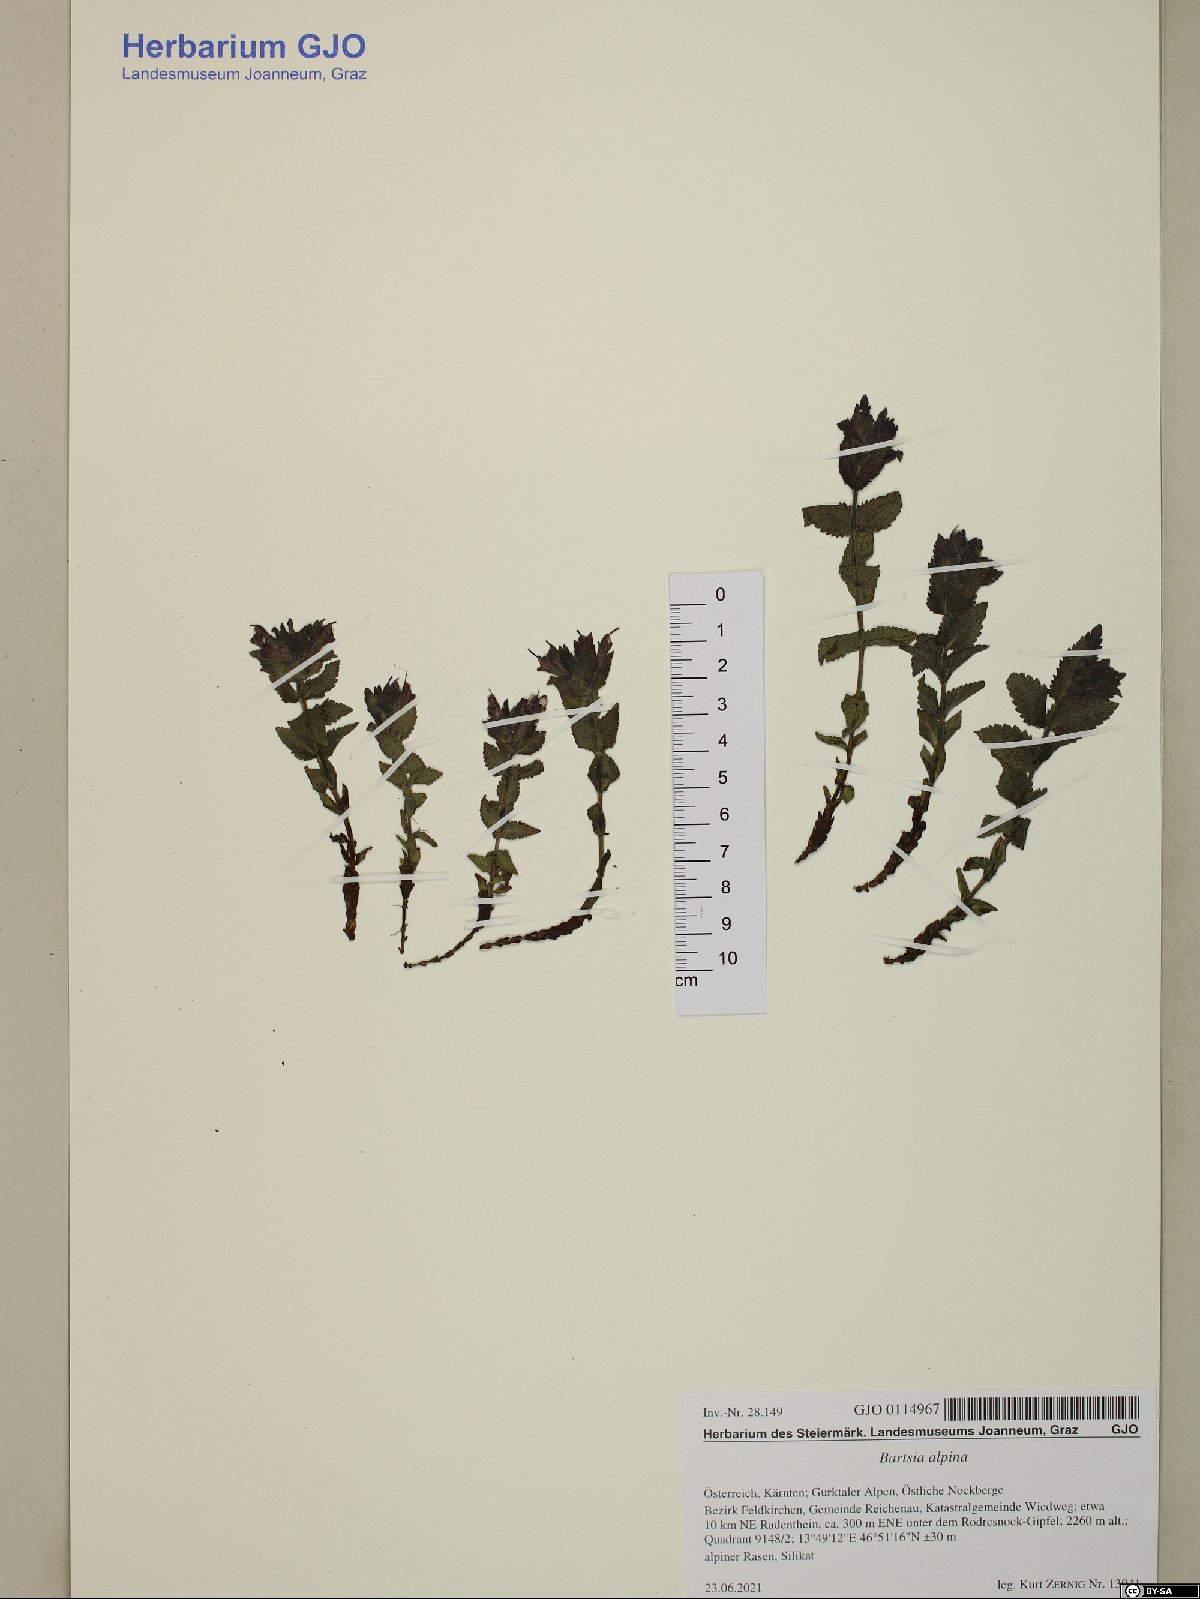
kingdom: Plantae
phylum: Tracheophyta
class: Magnoliopsida
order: Lamiales
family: Orobanchaceae
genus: Bartsia
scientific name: Bartsia alpina
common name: Alpine bartsia
